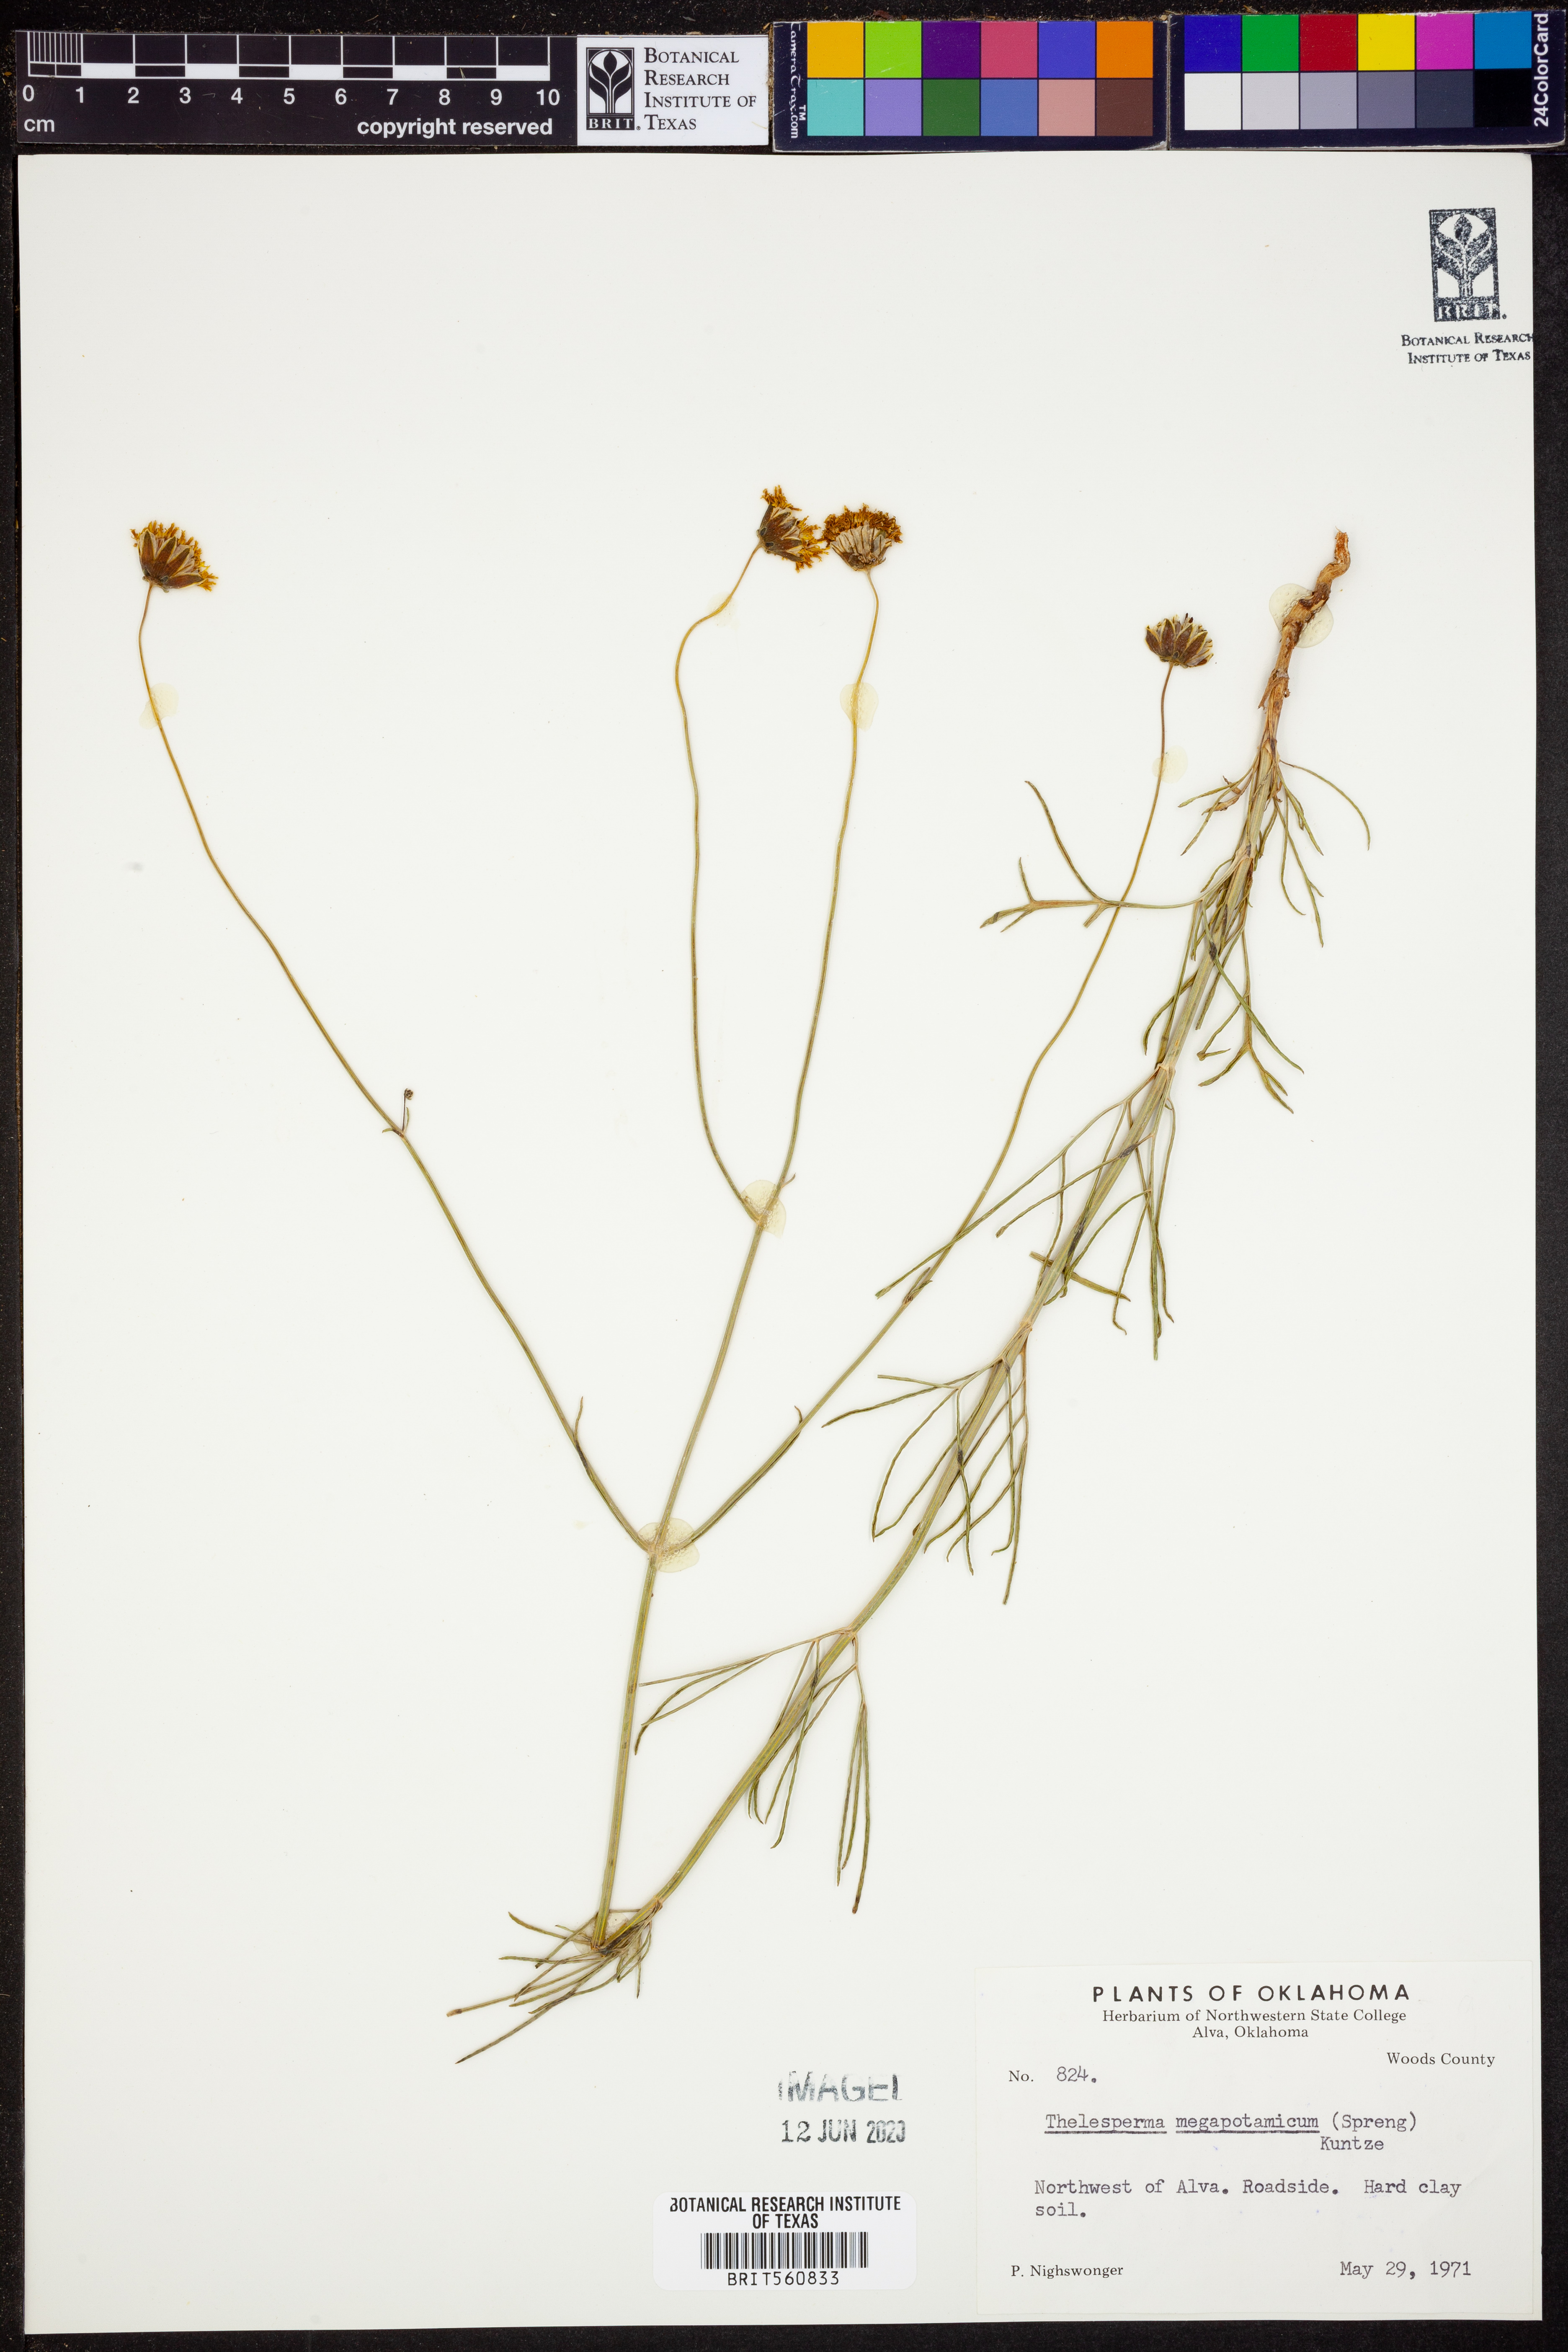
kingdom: Plantae
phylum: Tracheophyta
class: Magnoliopsida
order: Asterales
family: Asteraceae
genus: Thelesperma
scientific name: Thelesperma megapotamicum
